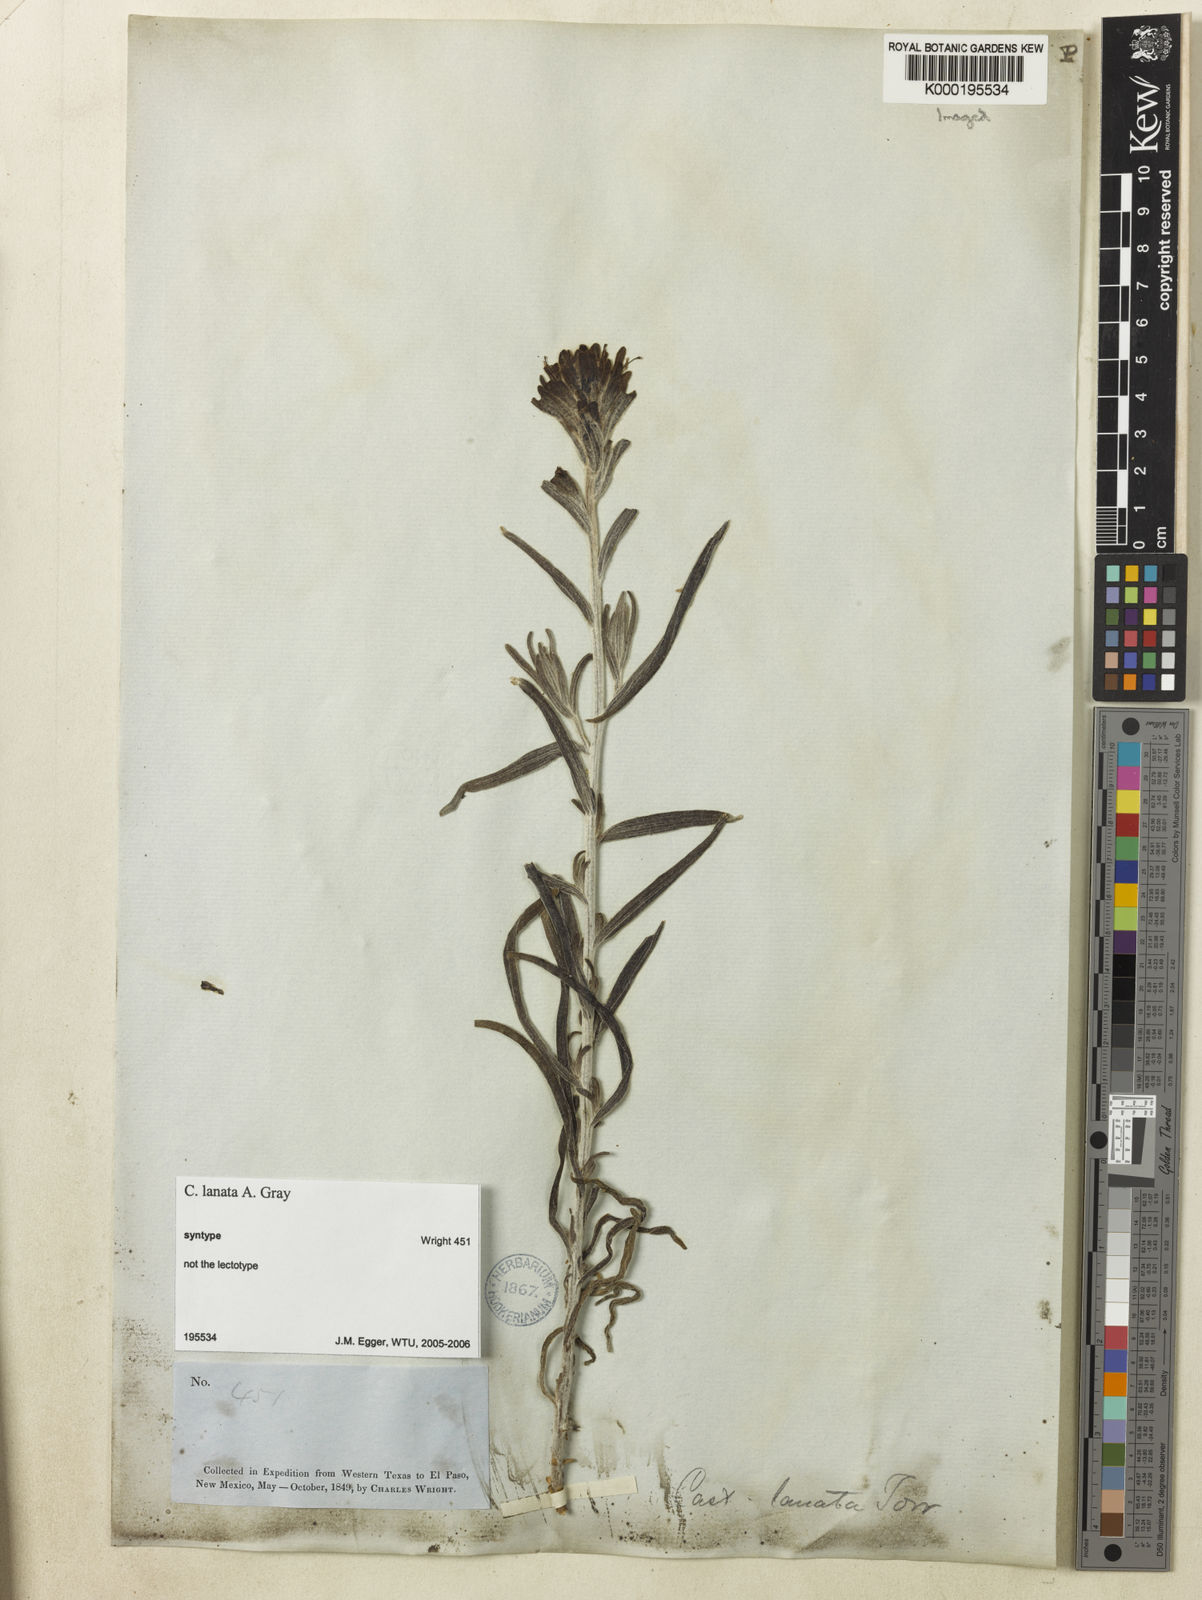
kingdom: Plantae
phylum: Tracheophyta
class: Magnoliopsida
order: Lamiales
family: Orobanchaceae
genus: Castilleja
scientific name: Castilleja lanata
